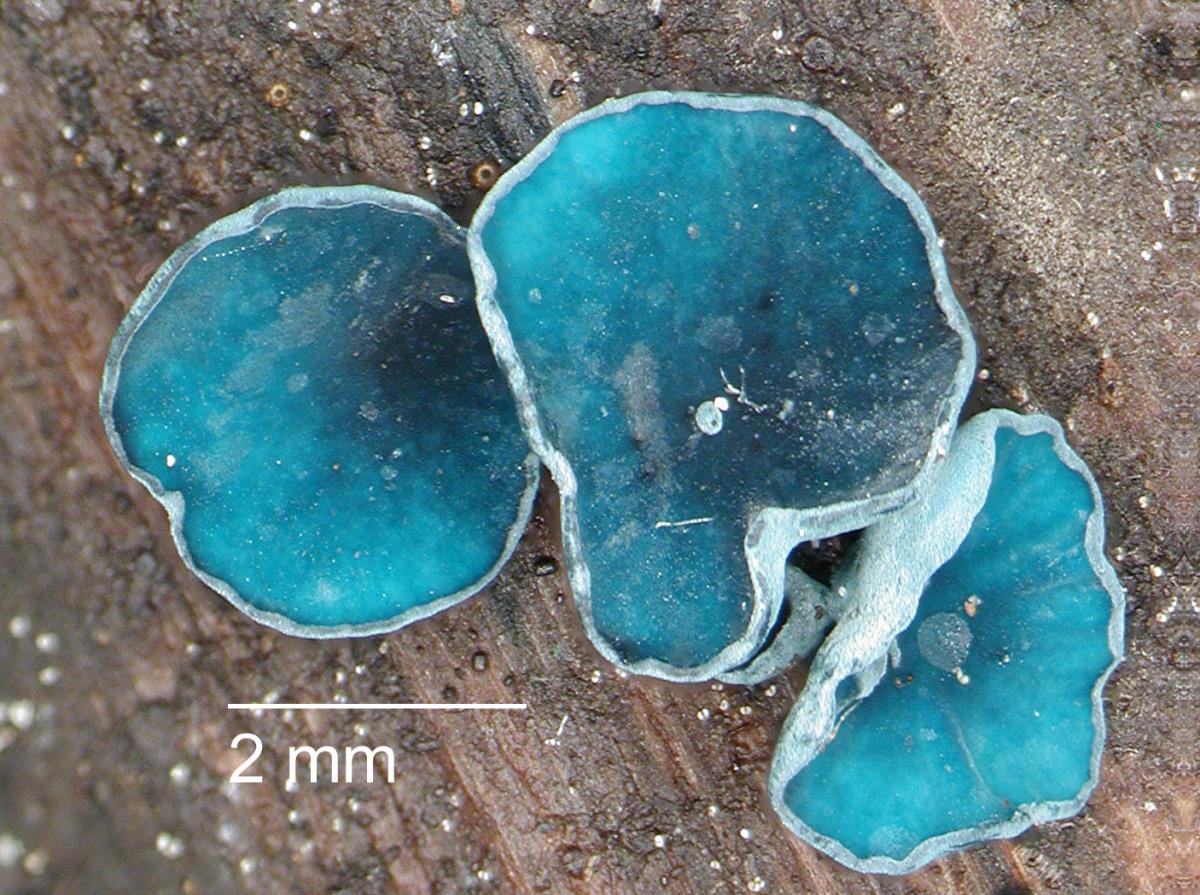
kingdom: Fungi
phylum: Ascomycota
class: Leotiomycetes
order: Helotiales
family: Chlorociboriaceae
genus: Chlorociboria
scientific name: Chlorociboria novae-zelandiae
